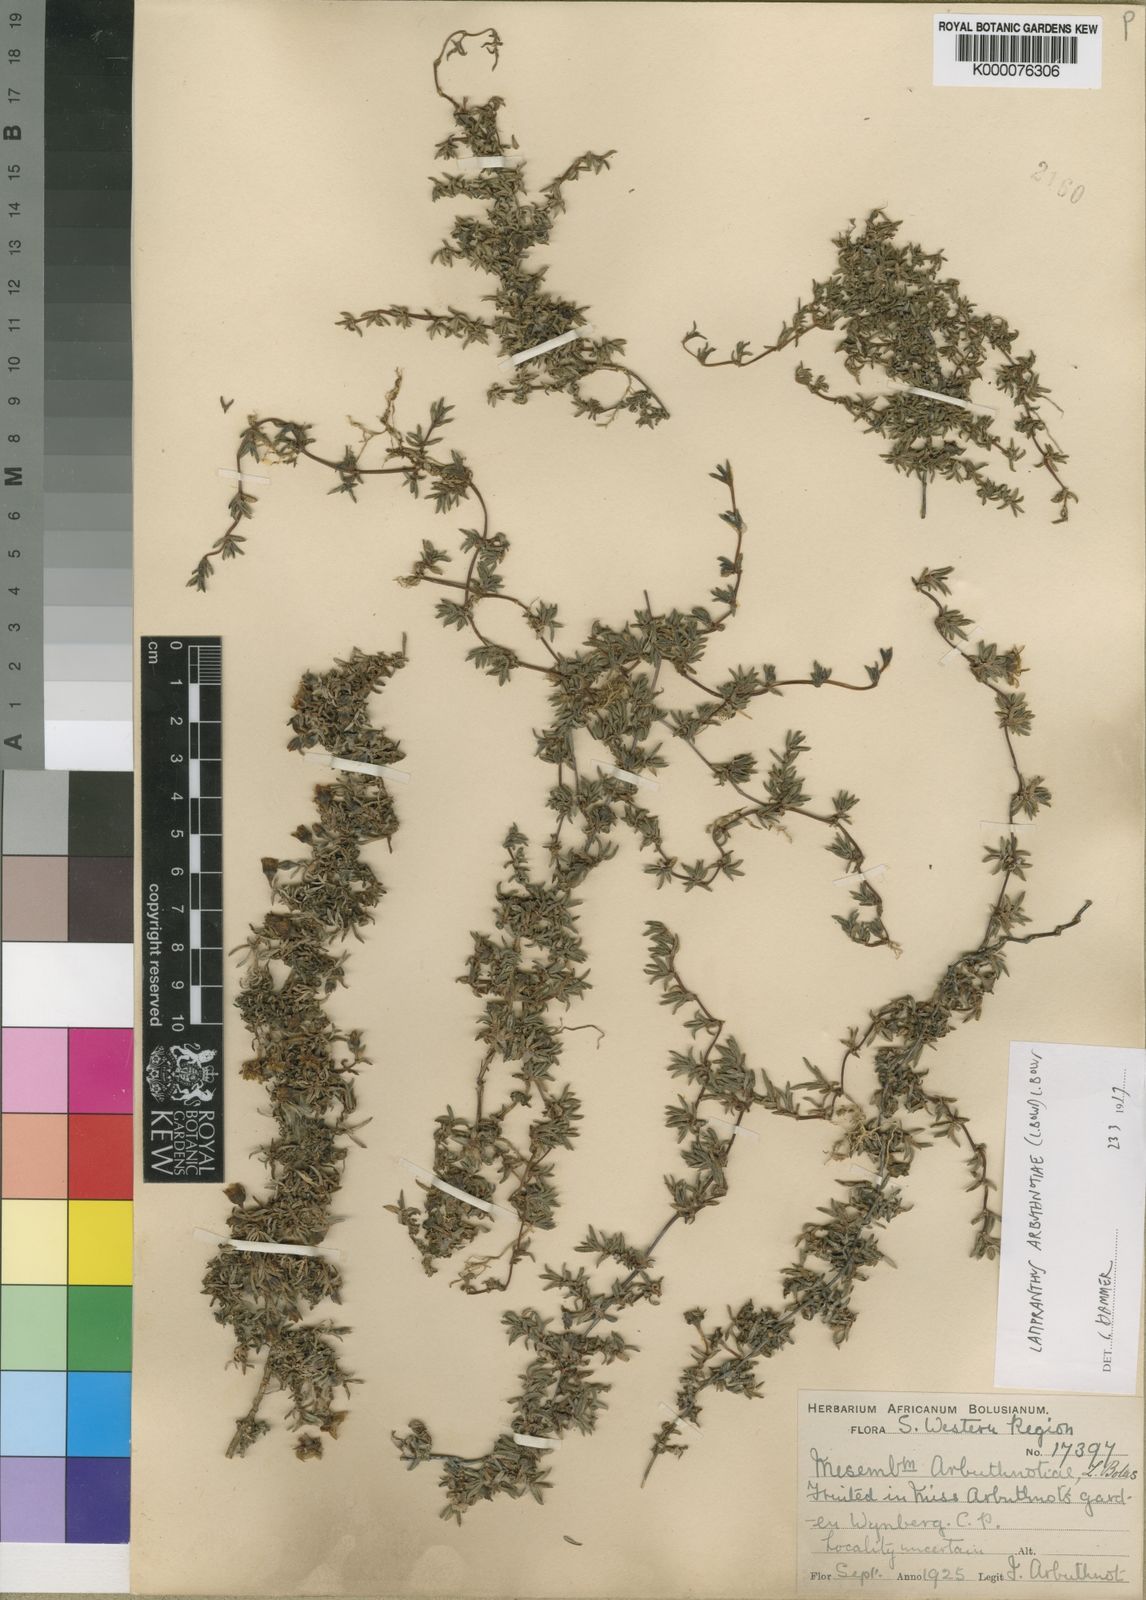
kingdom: Plantae
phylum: Tracheophyta
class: Magnoliopsida
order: Caryophyllales
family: Aizoaceae
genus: Lampranthus
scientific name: Lampranthus arbuthnotiae
